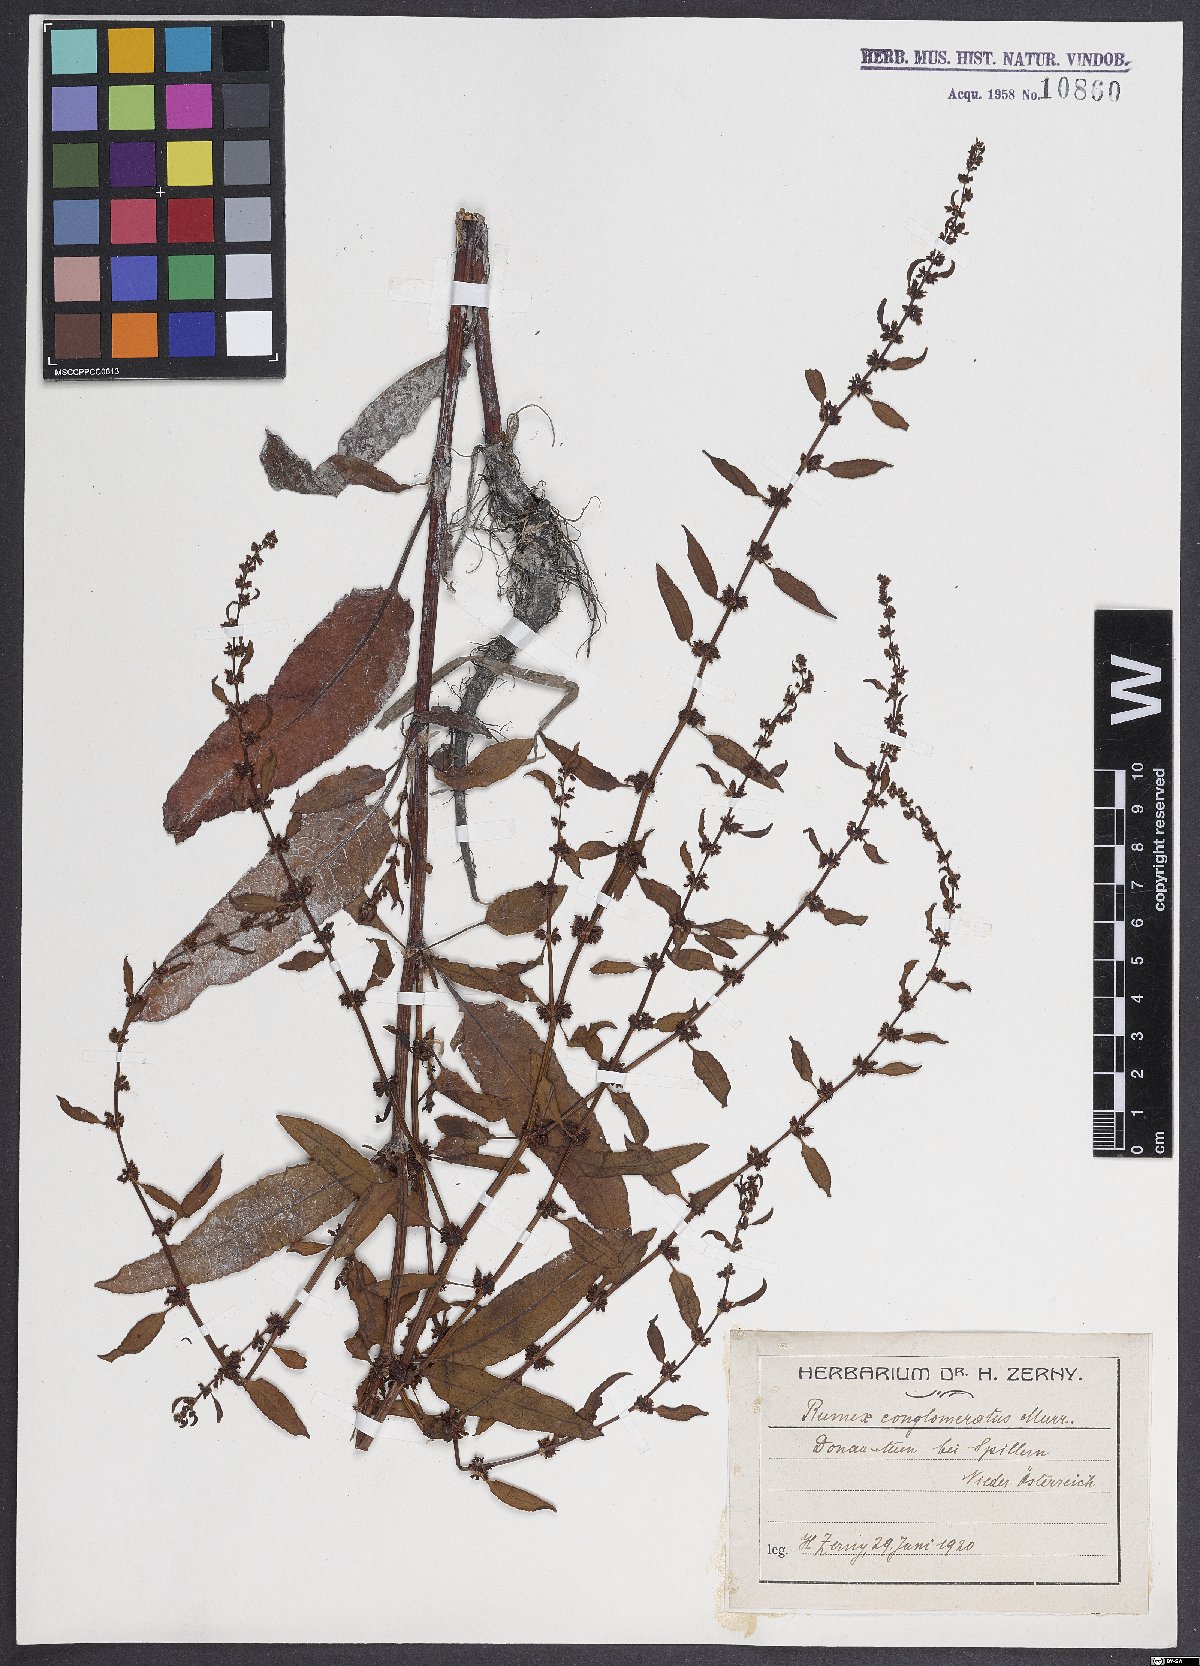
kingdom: Plantae
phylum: Tracheophyta
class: Magnoliopsida
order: Caryophyllales
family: Polygonaceae
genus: Rumex
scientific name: Rumex conglomeratus
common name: Clustered dock
